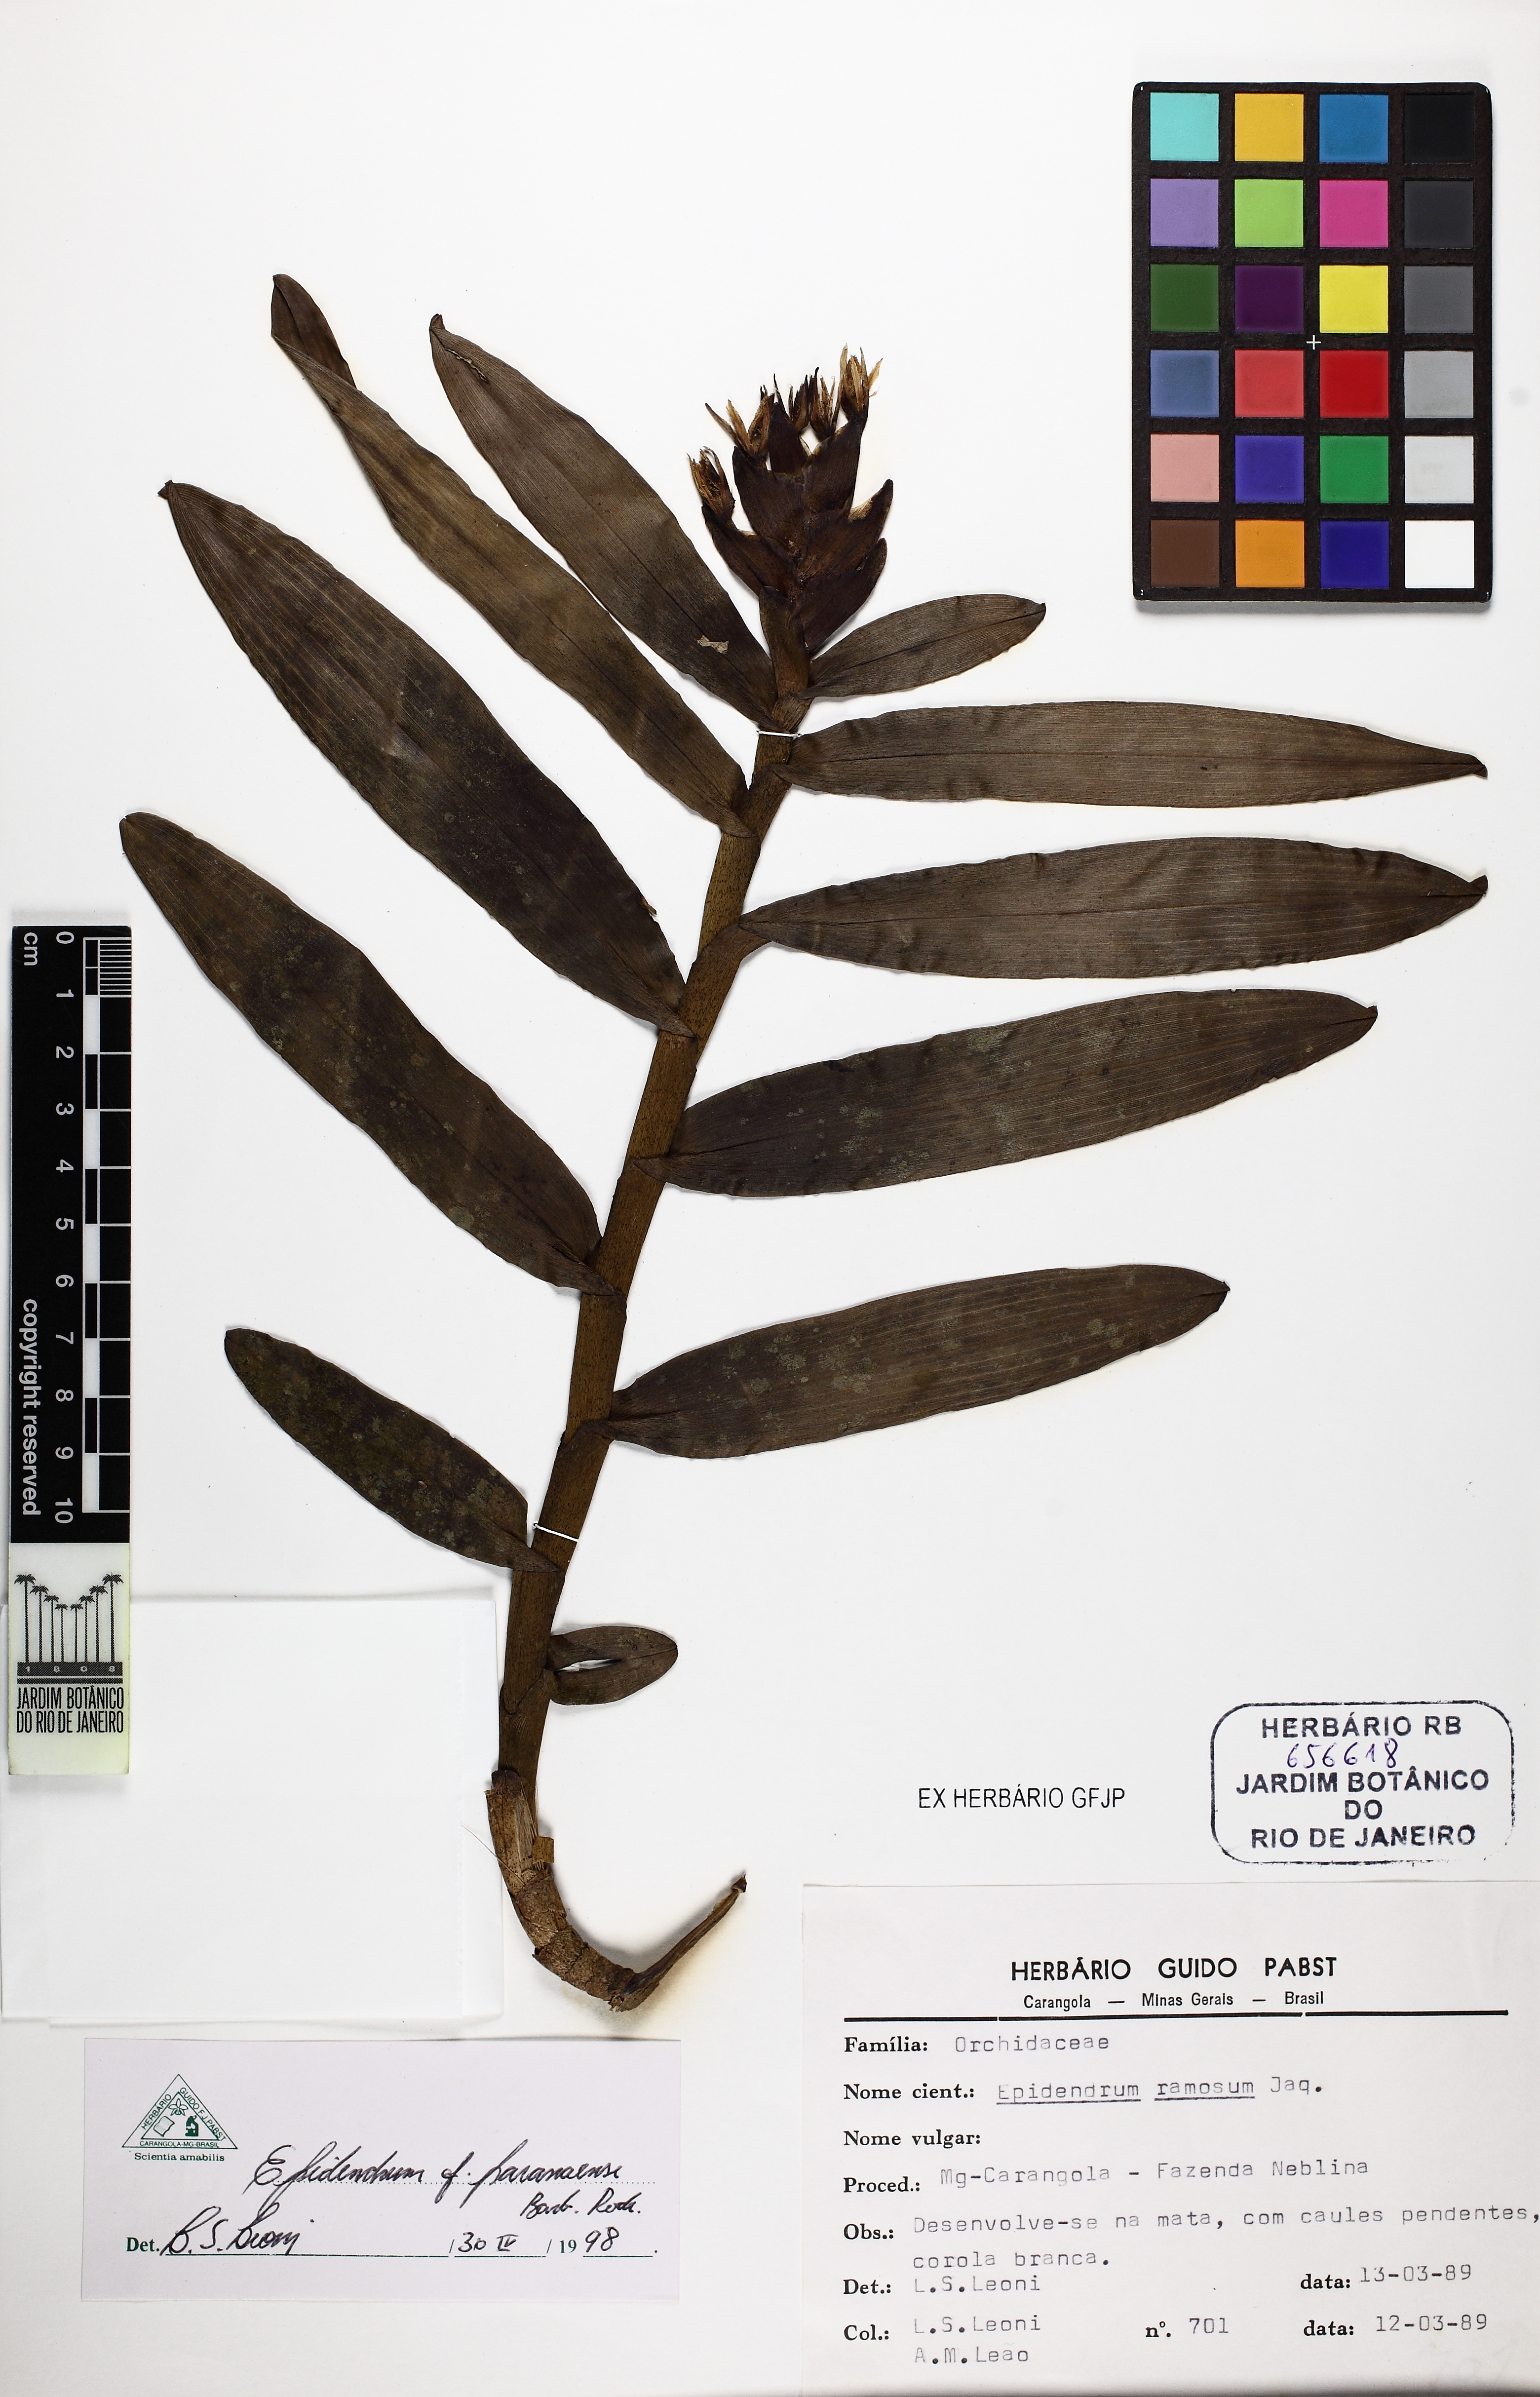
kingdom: Plantae
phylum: Tracheophyta
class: Liliopsida
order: Asparagales
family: Orchidaceae
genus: Epidendrum
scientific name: Epidendrum paranaense
